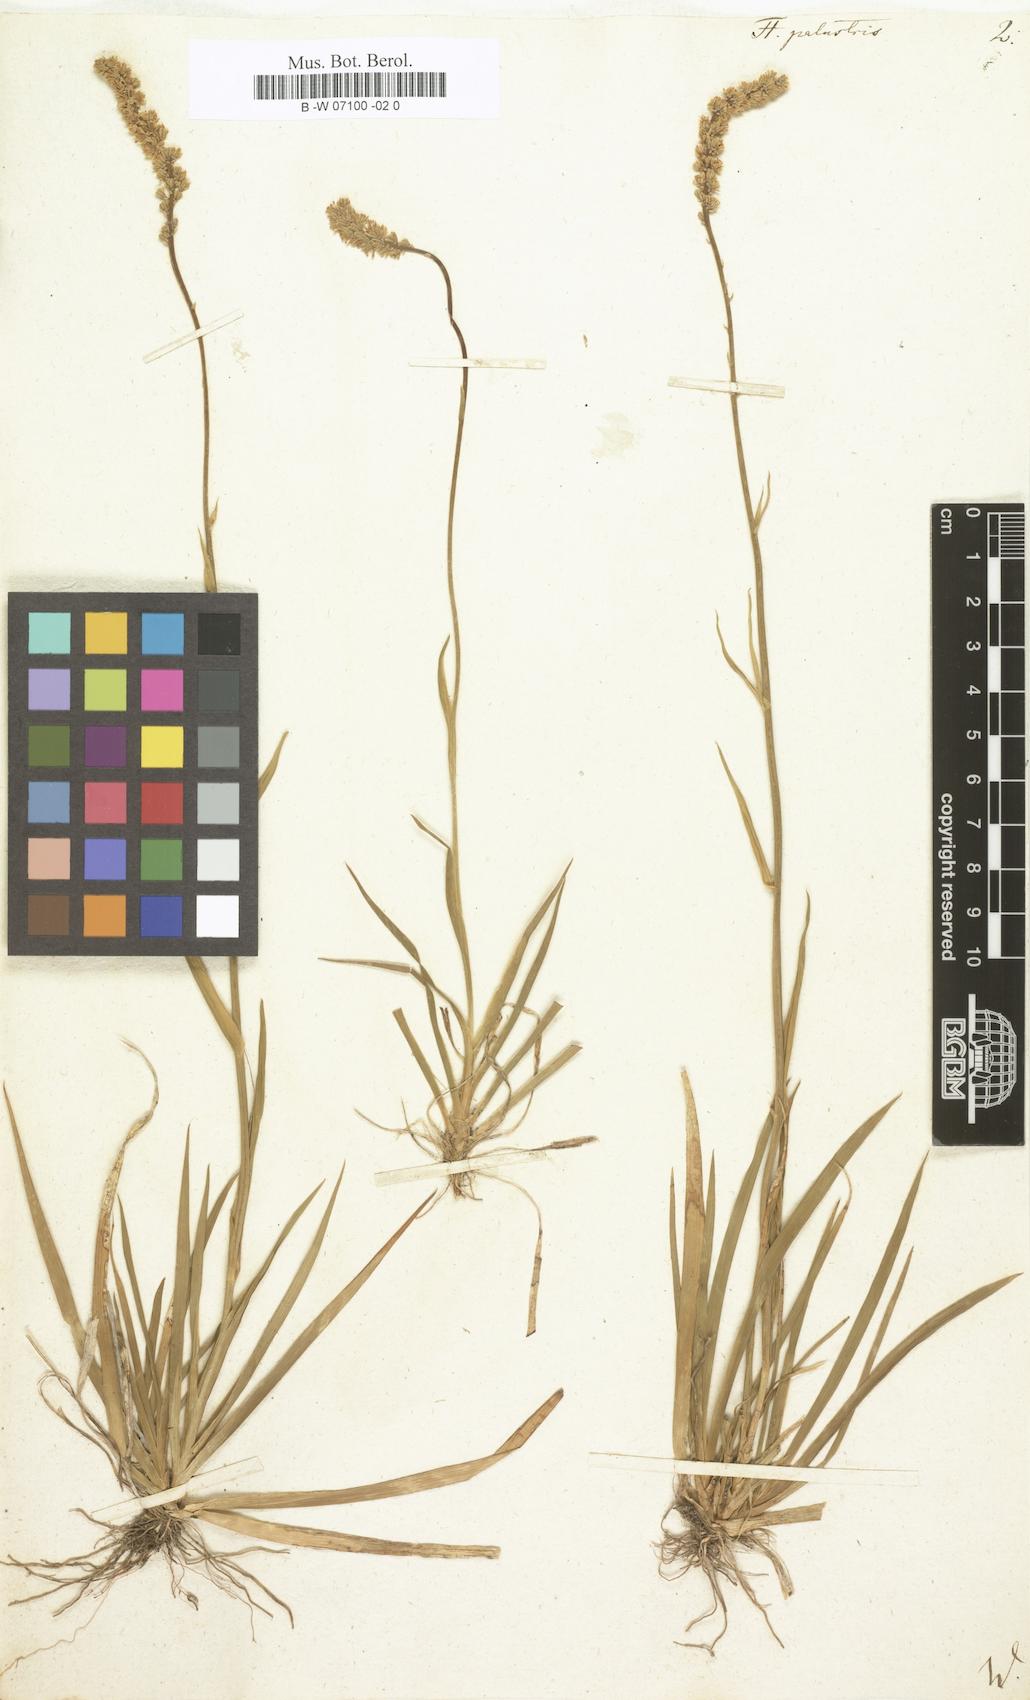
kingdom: Plantae
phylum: Tracheophyta
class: Liliopsida
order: Liliales
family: Melanthiaceae
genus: Tofieldia
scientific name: Tofieldia palustris
